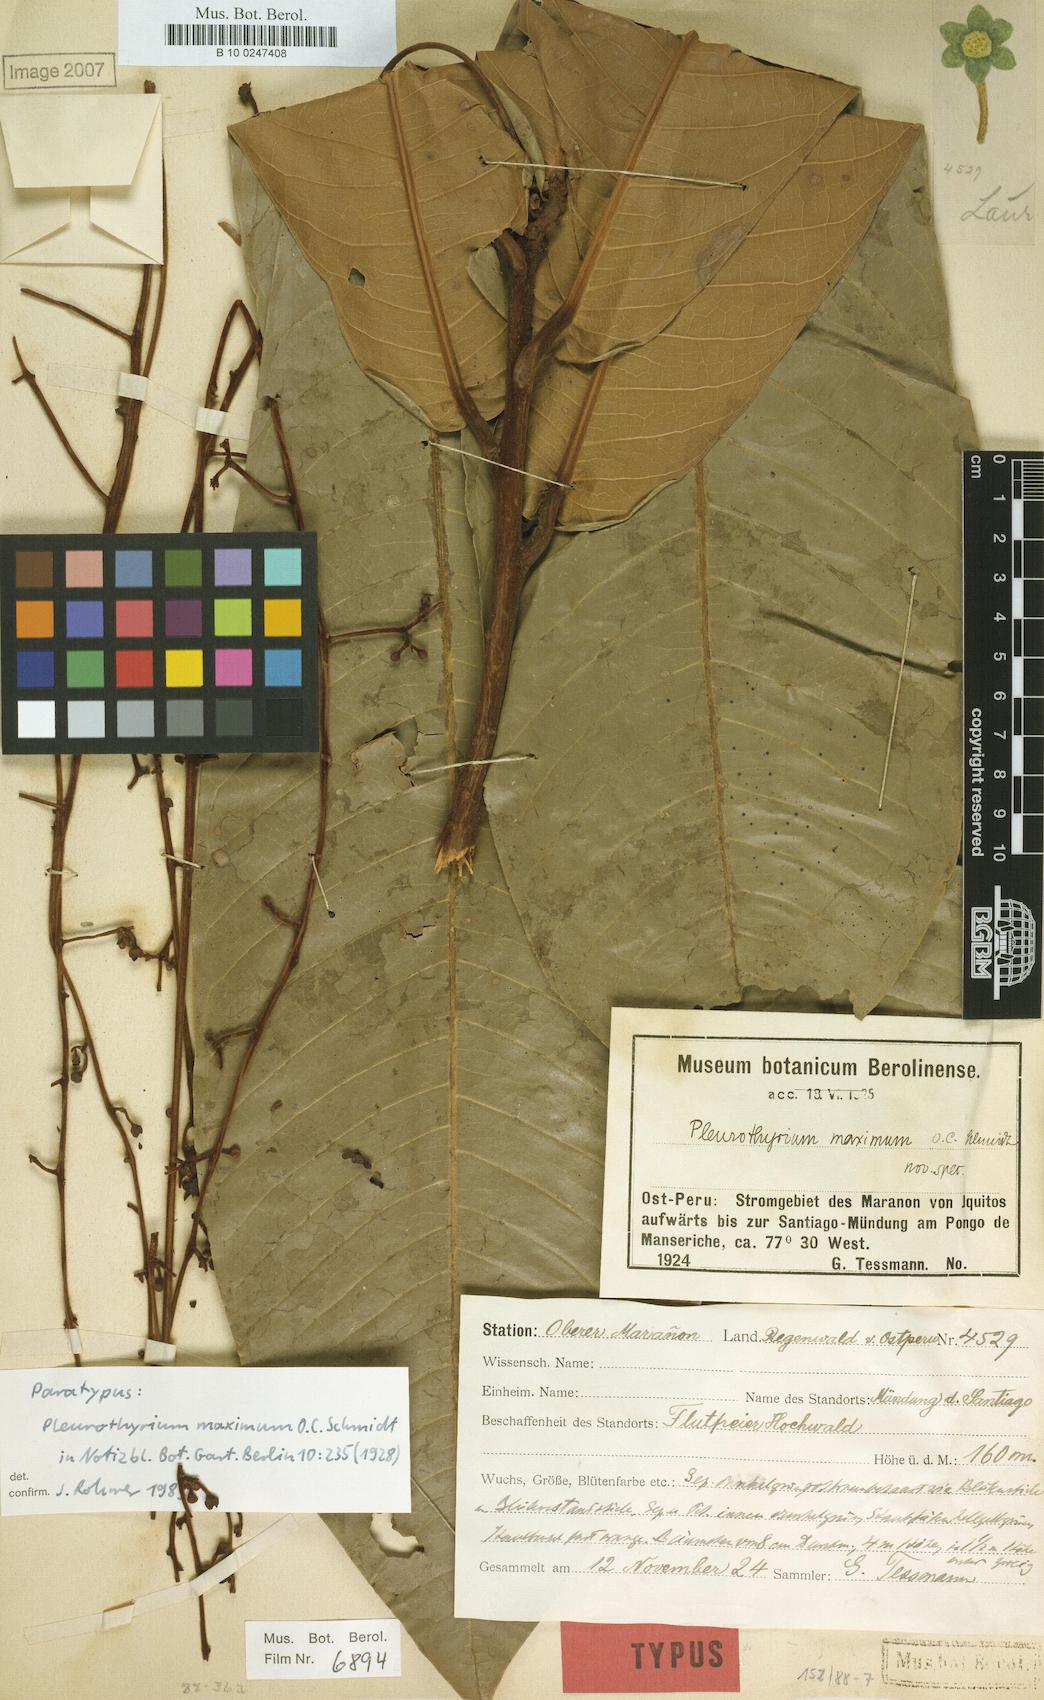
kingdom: Plantae
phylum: Tracheophyta
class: Magnoliopsida
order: Laurales
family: Lauraceae
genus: Pleurothyrium
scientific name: Pleurothyrium maximum
